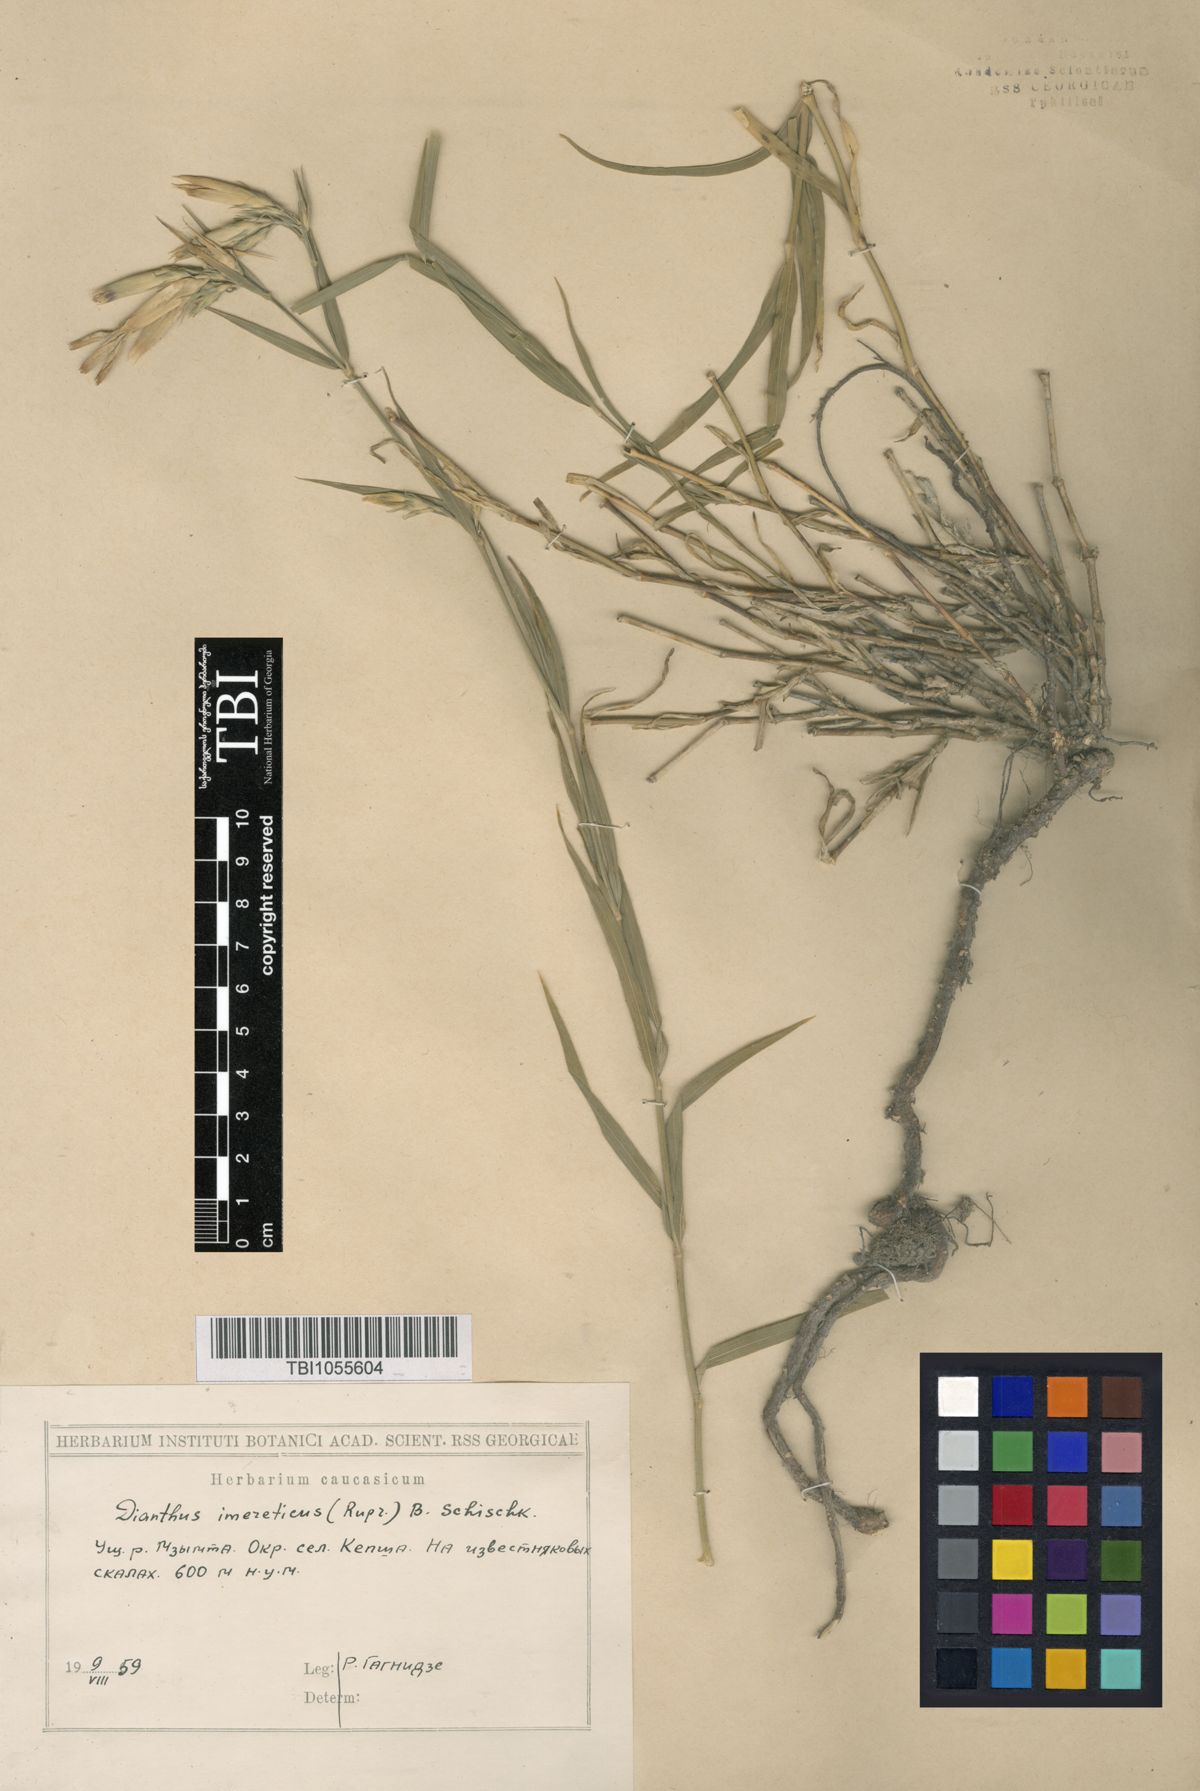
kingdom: Plantae
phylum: Tracheophyta
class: Magnoliopsida
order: Caryophyllales
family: Caryophyllaceae
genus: Dianthus
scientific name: Dianthus imereticus
